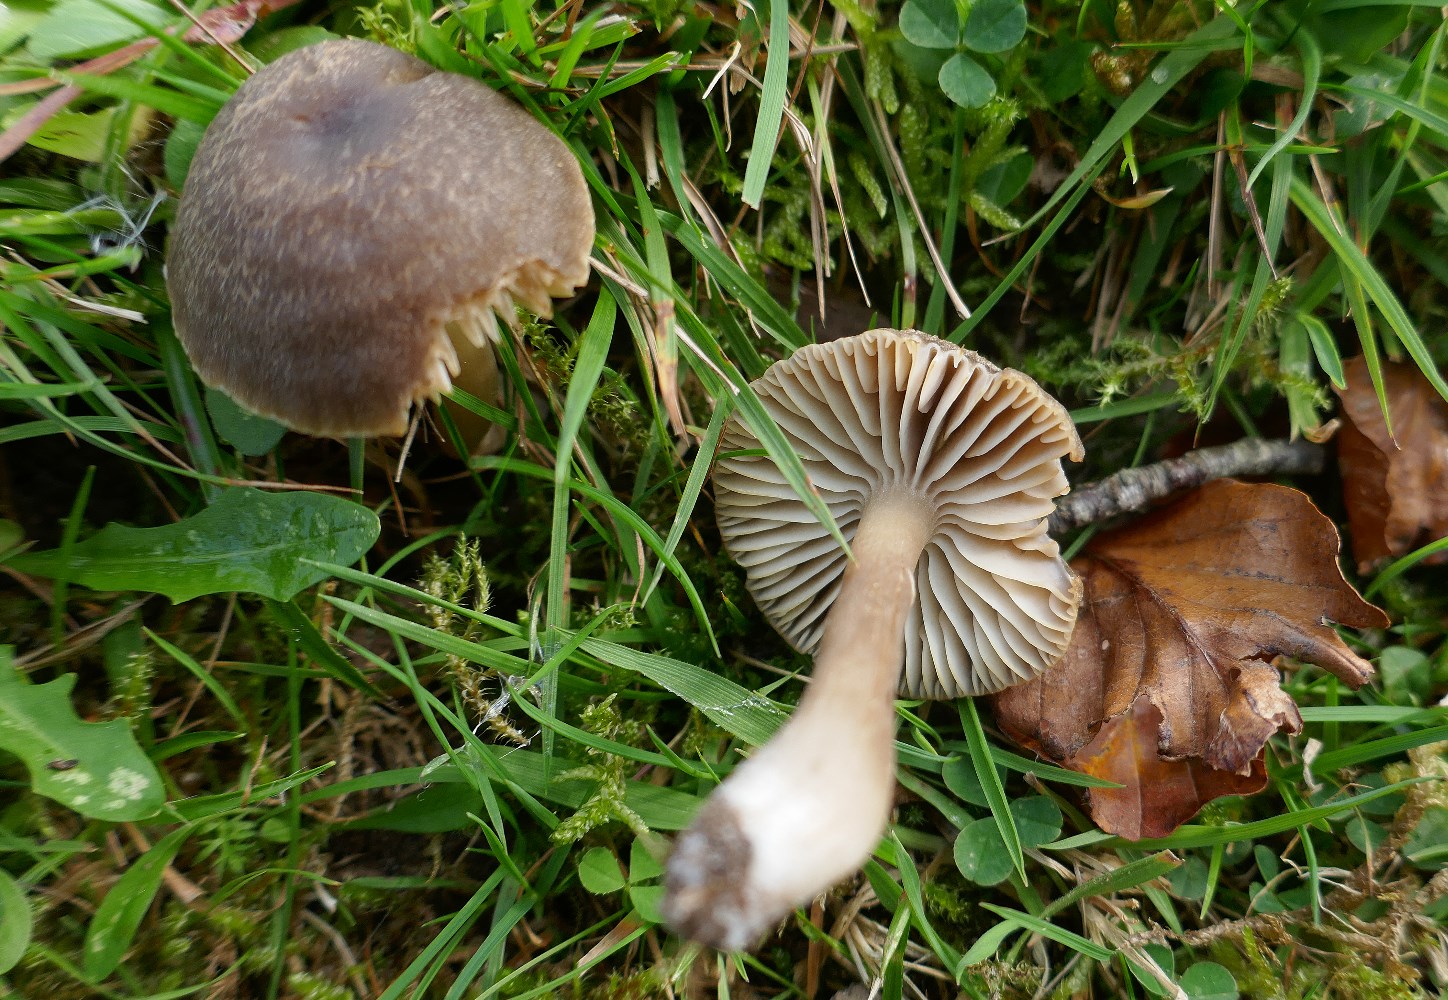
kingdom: Fungi
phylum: Basidiomycota
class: Agaricomycetes
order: Agaricales
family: Hygrophoraceae
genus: Neohygrocybe
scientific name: Neohygrocybe nitrata
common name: stinkende vokshat
